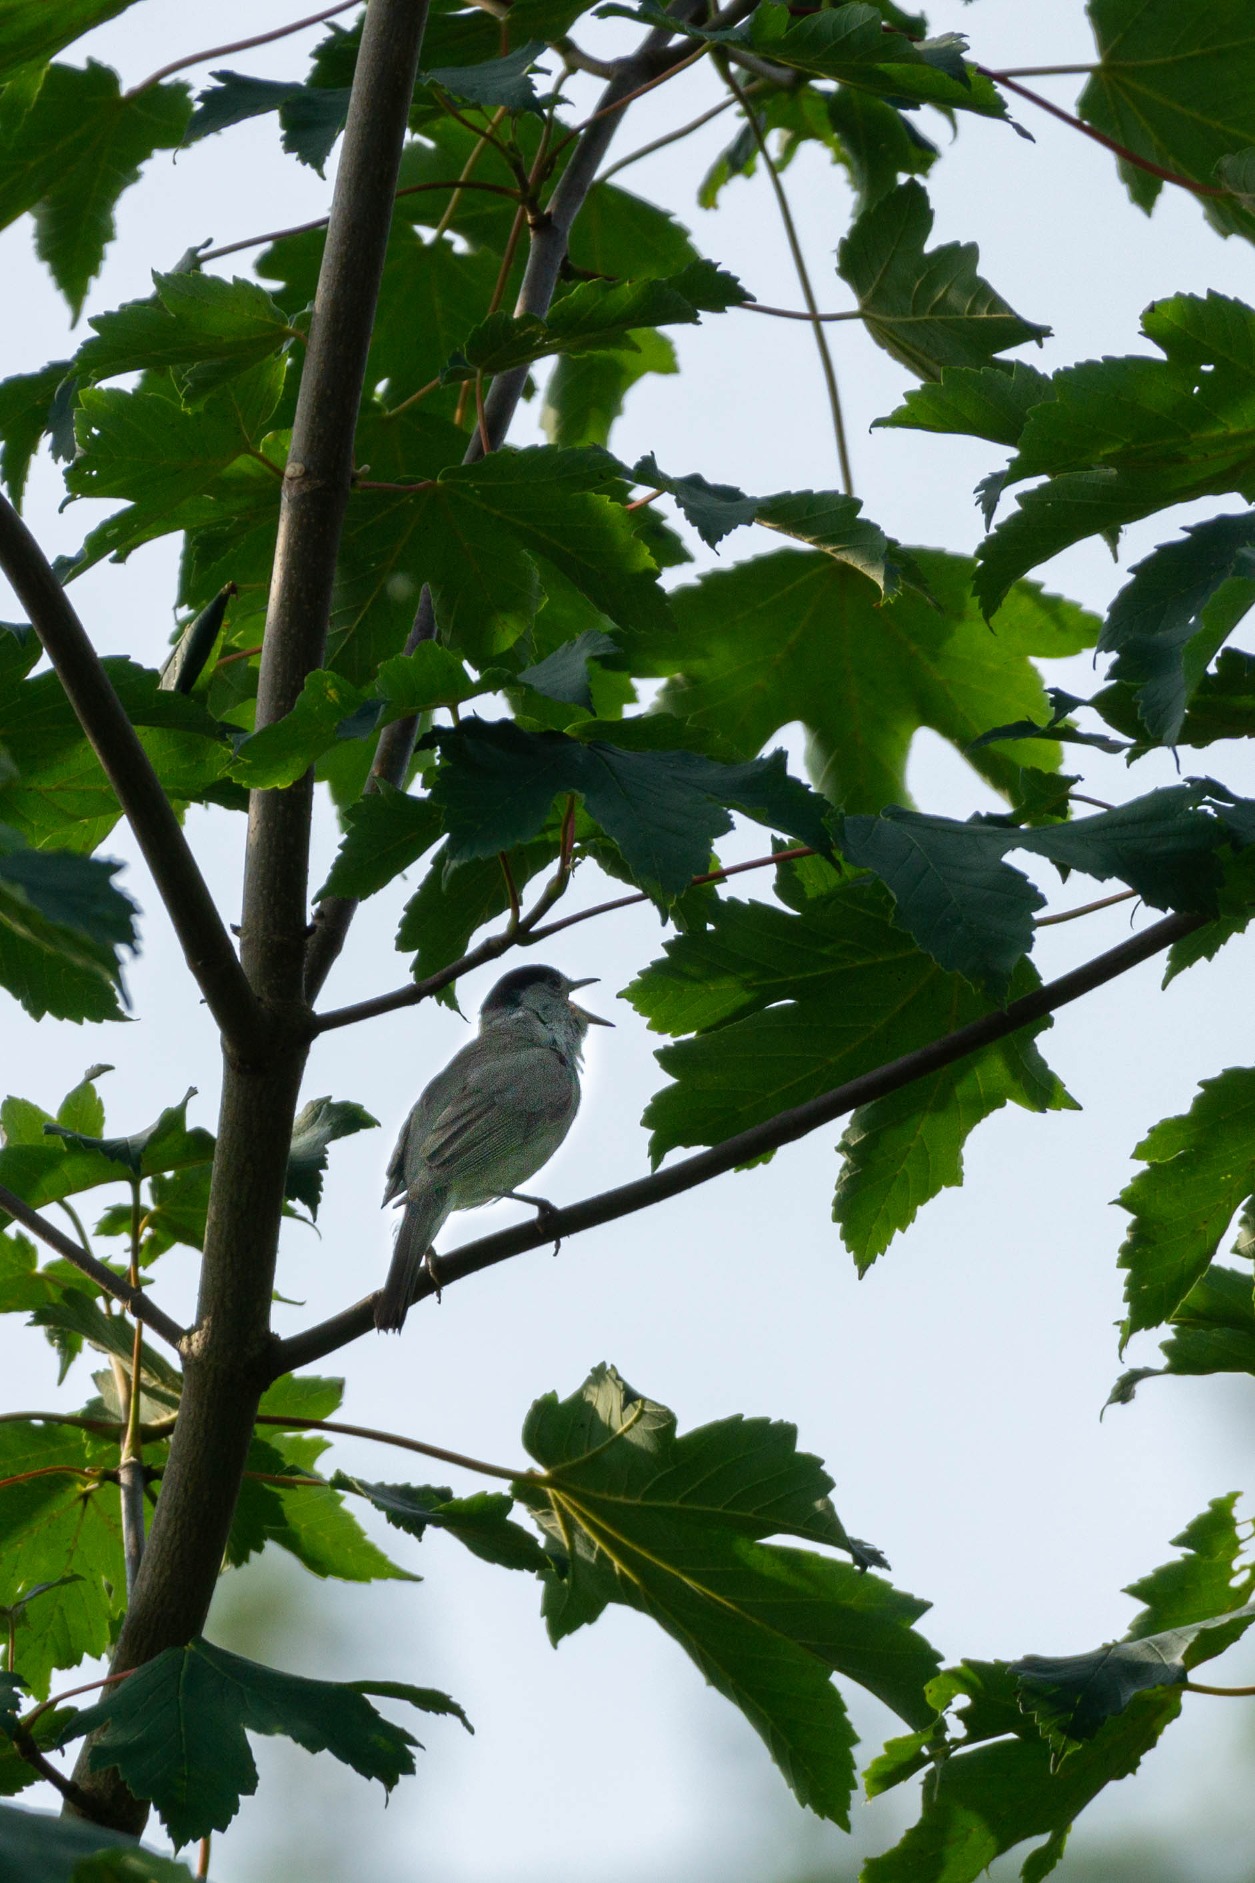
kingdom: Animalia
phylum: Chordata
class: Aves
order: Passeriformes
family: Sylviidae
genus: Sylvia
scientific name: Sylvia atricapilla
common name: Munk
